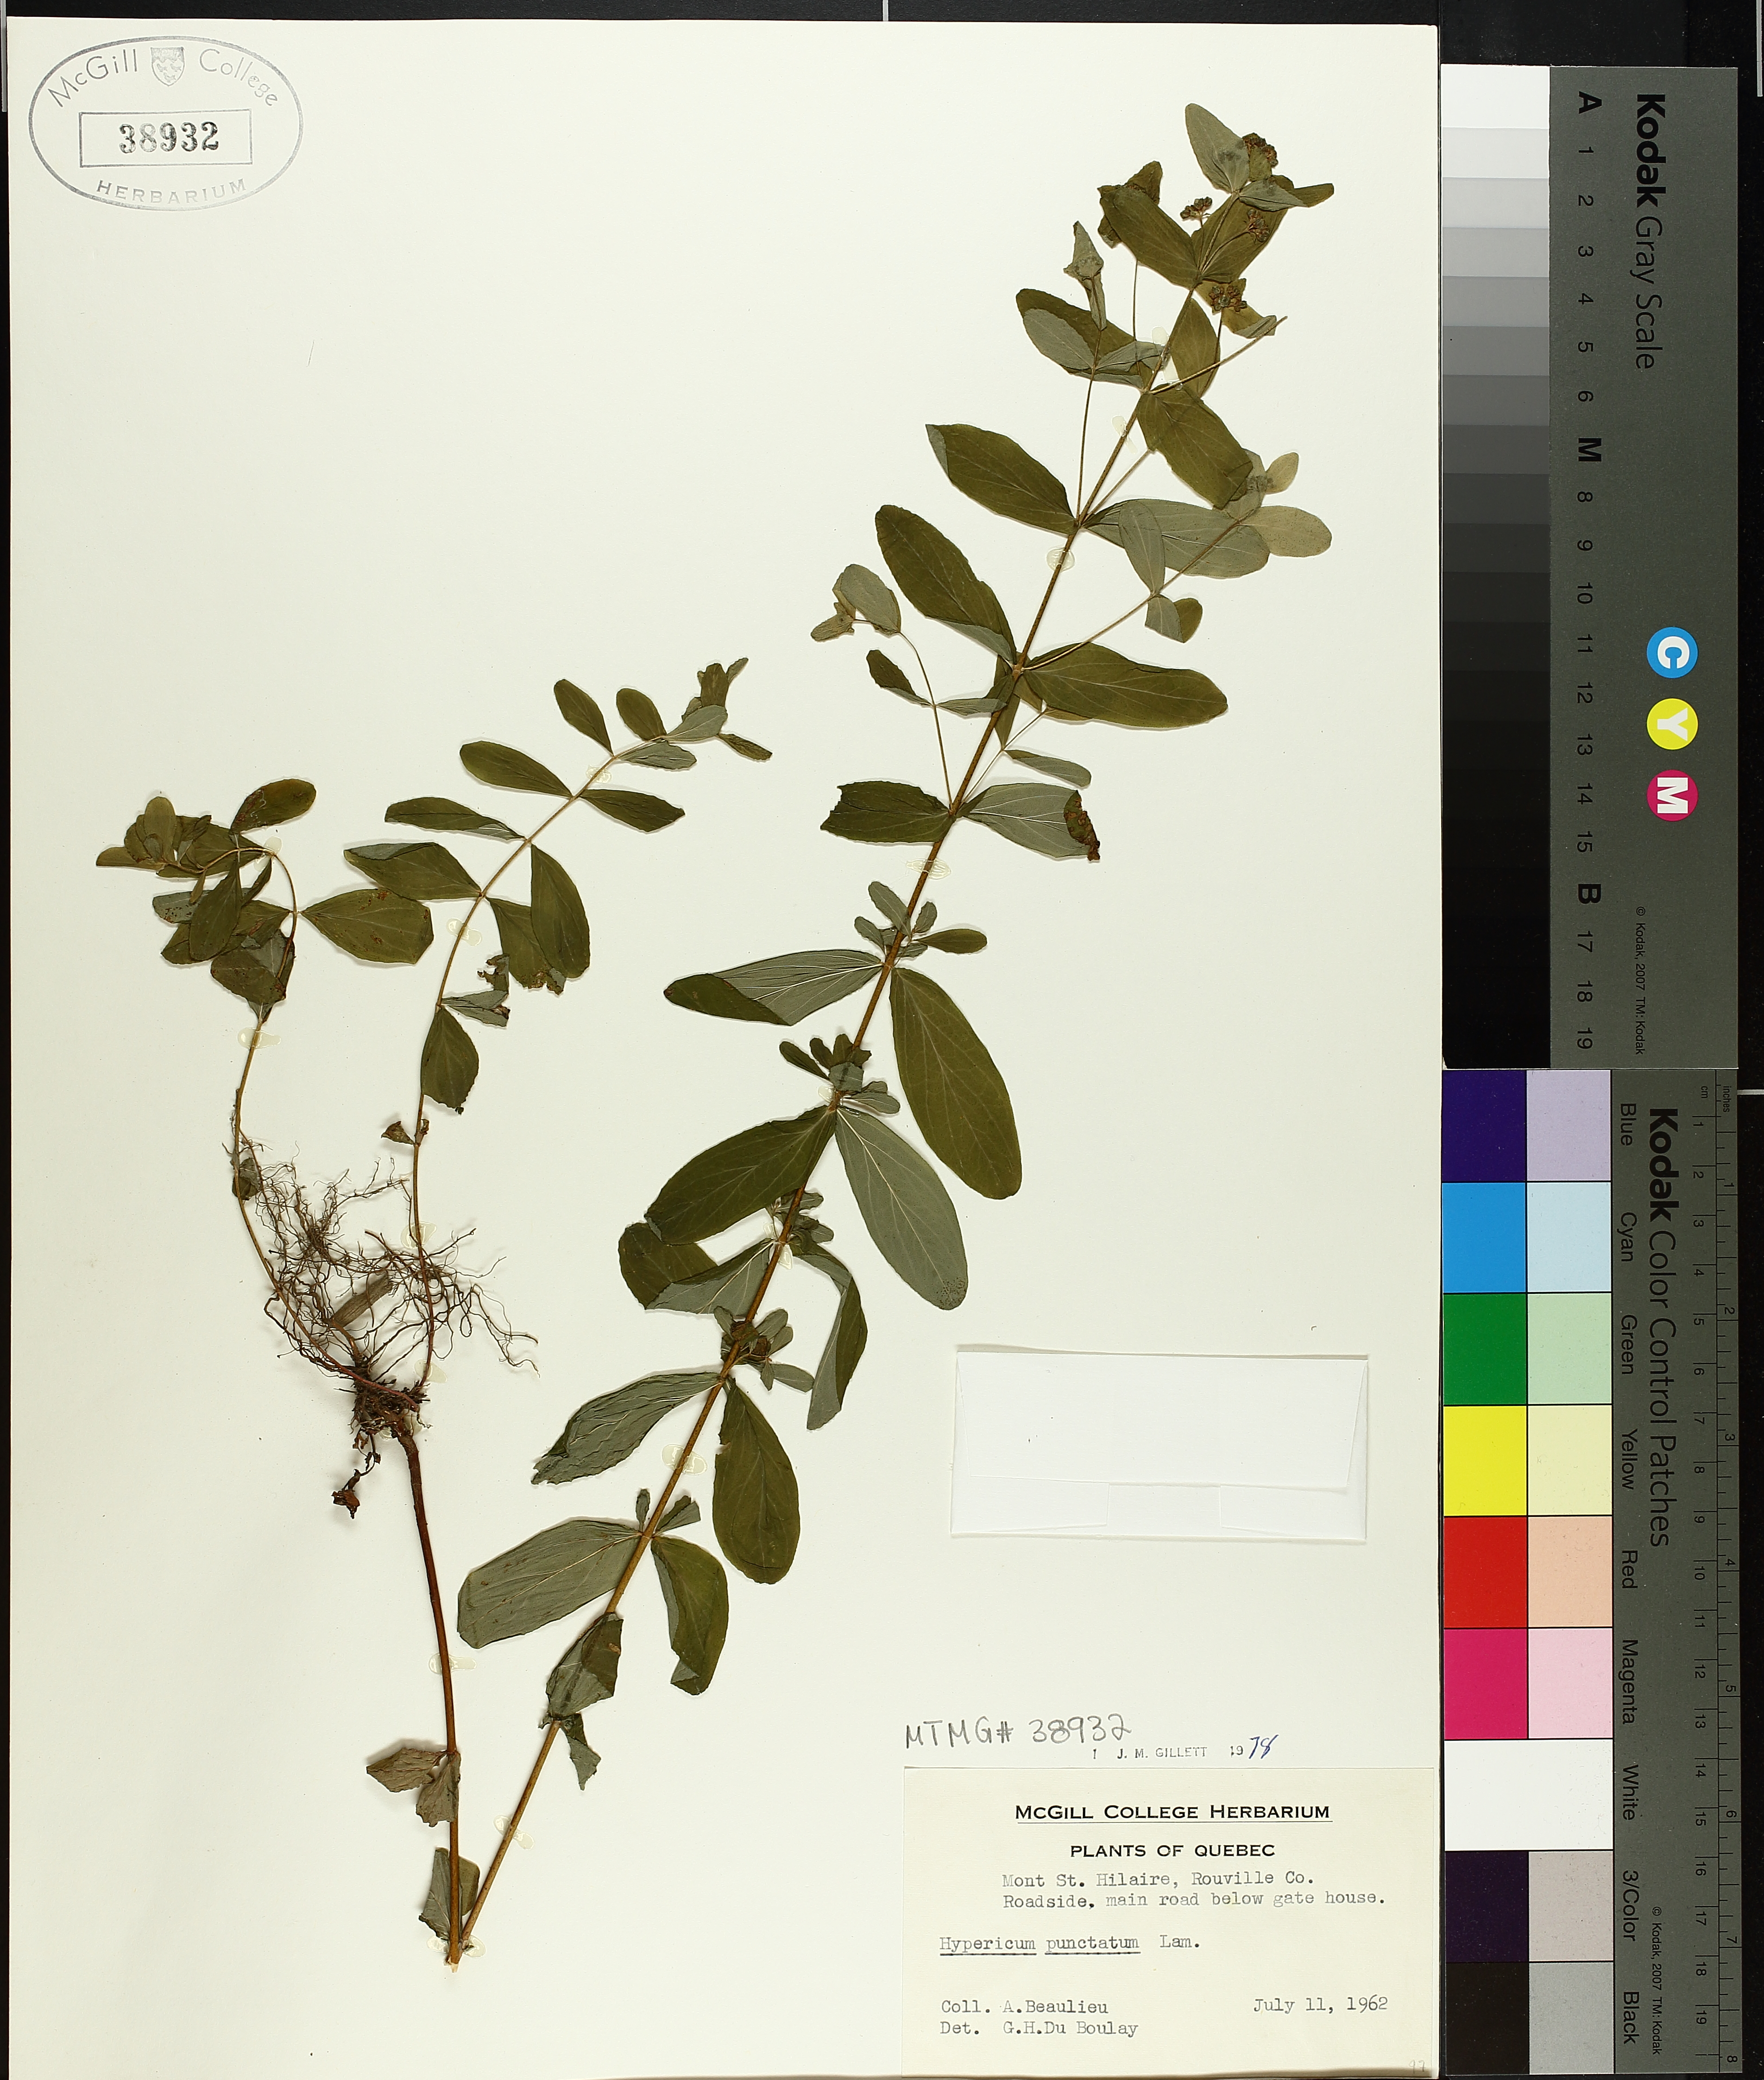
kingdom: Plantae
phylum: Tracheophyta
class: Magnoliopsida
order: Malpighiales
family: Hypericaceae
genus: Hypericum
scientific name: Hypericum punctatum
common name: Spotted st. john's-wort
